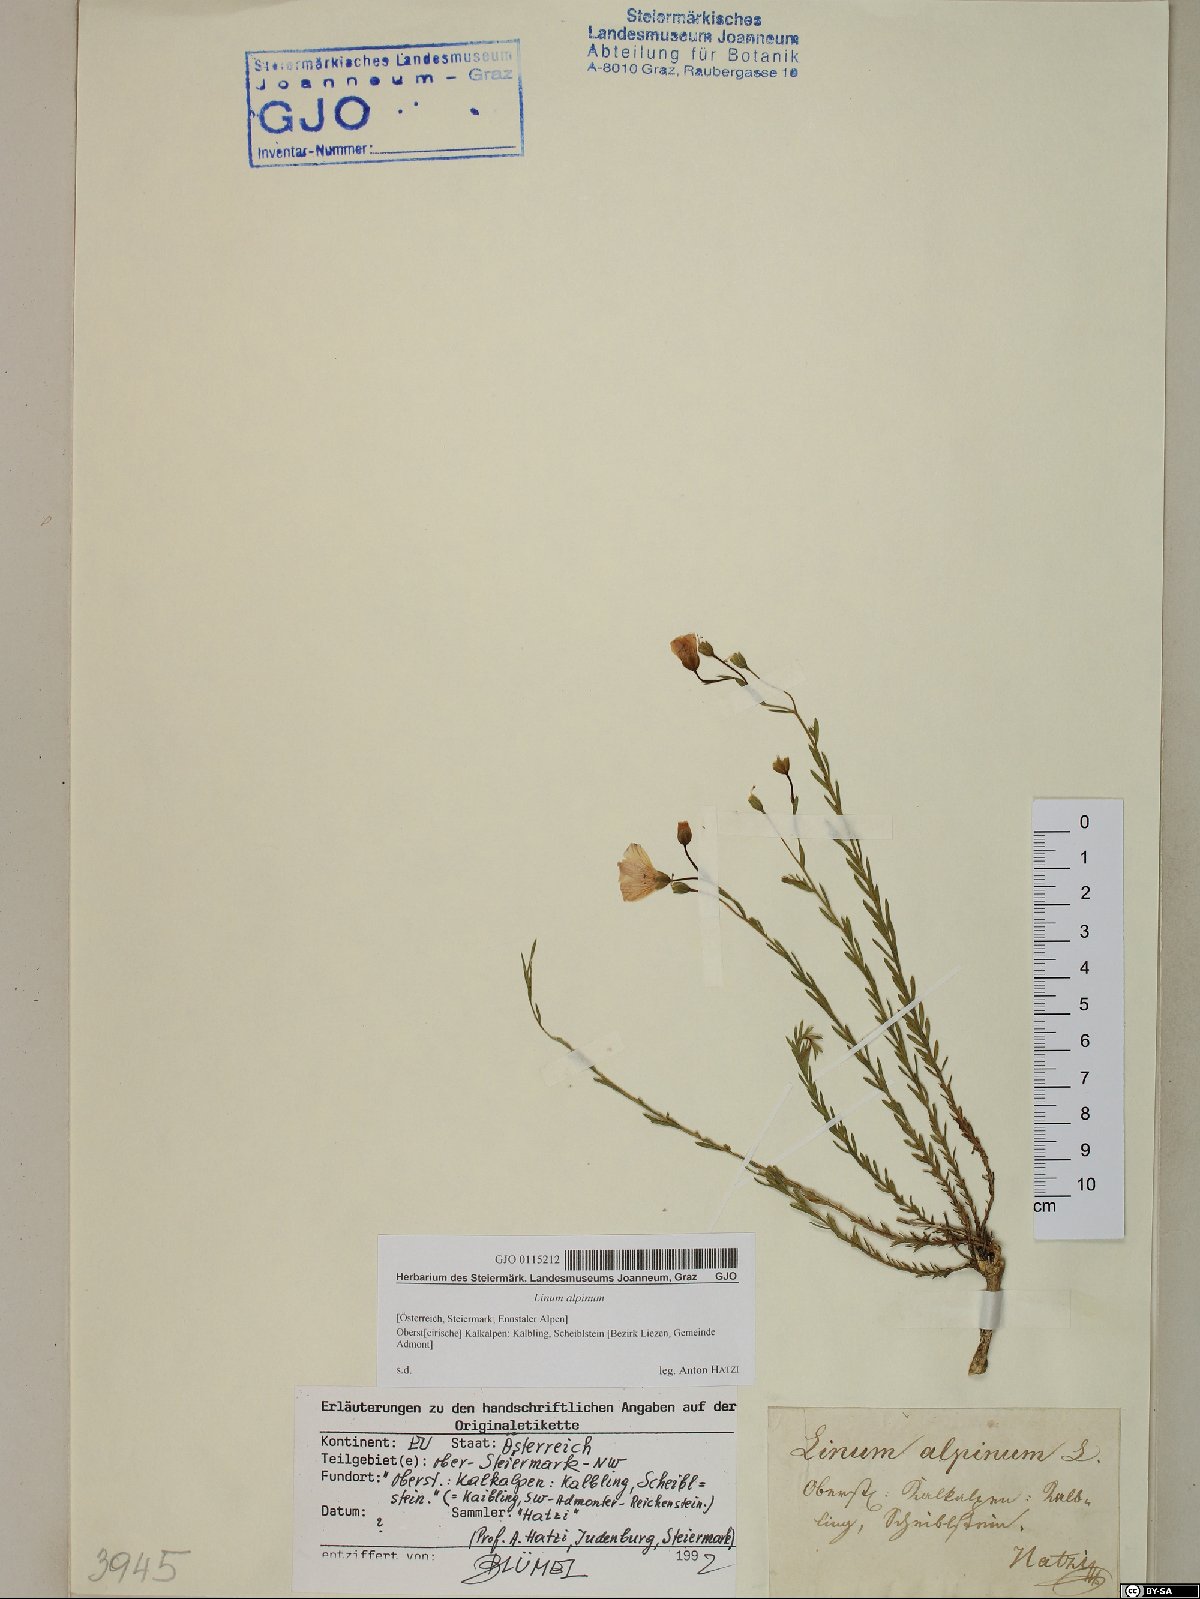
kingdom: Plantae
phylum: Tracheophyta
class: Magnoliopsida
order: Malpighiales
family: Linaceae
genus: Linum
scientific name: Linum alpinum
